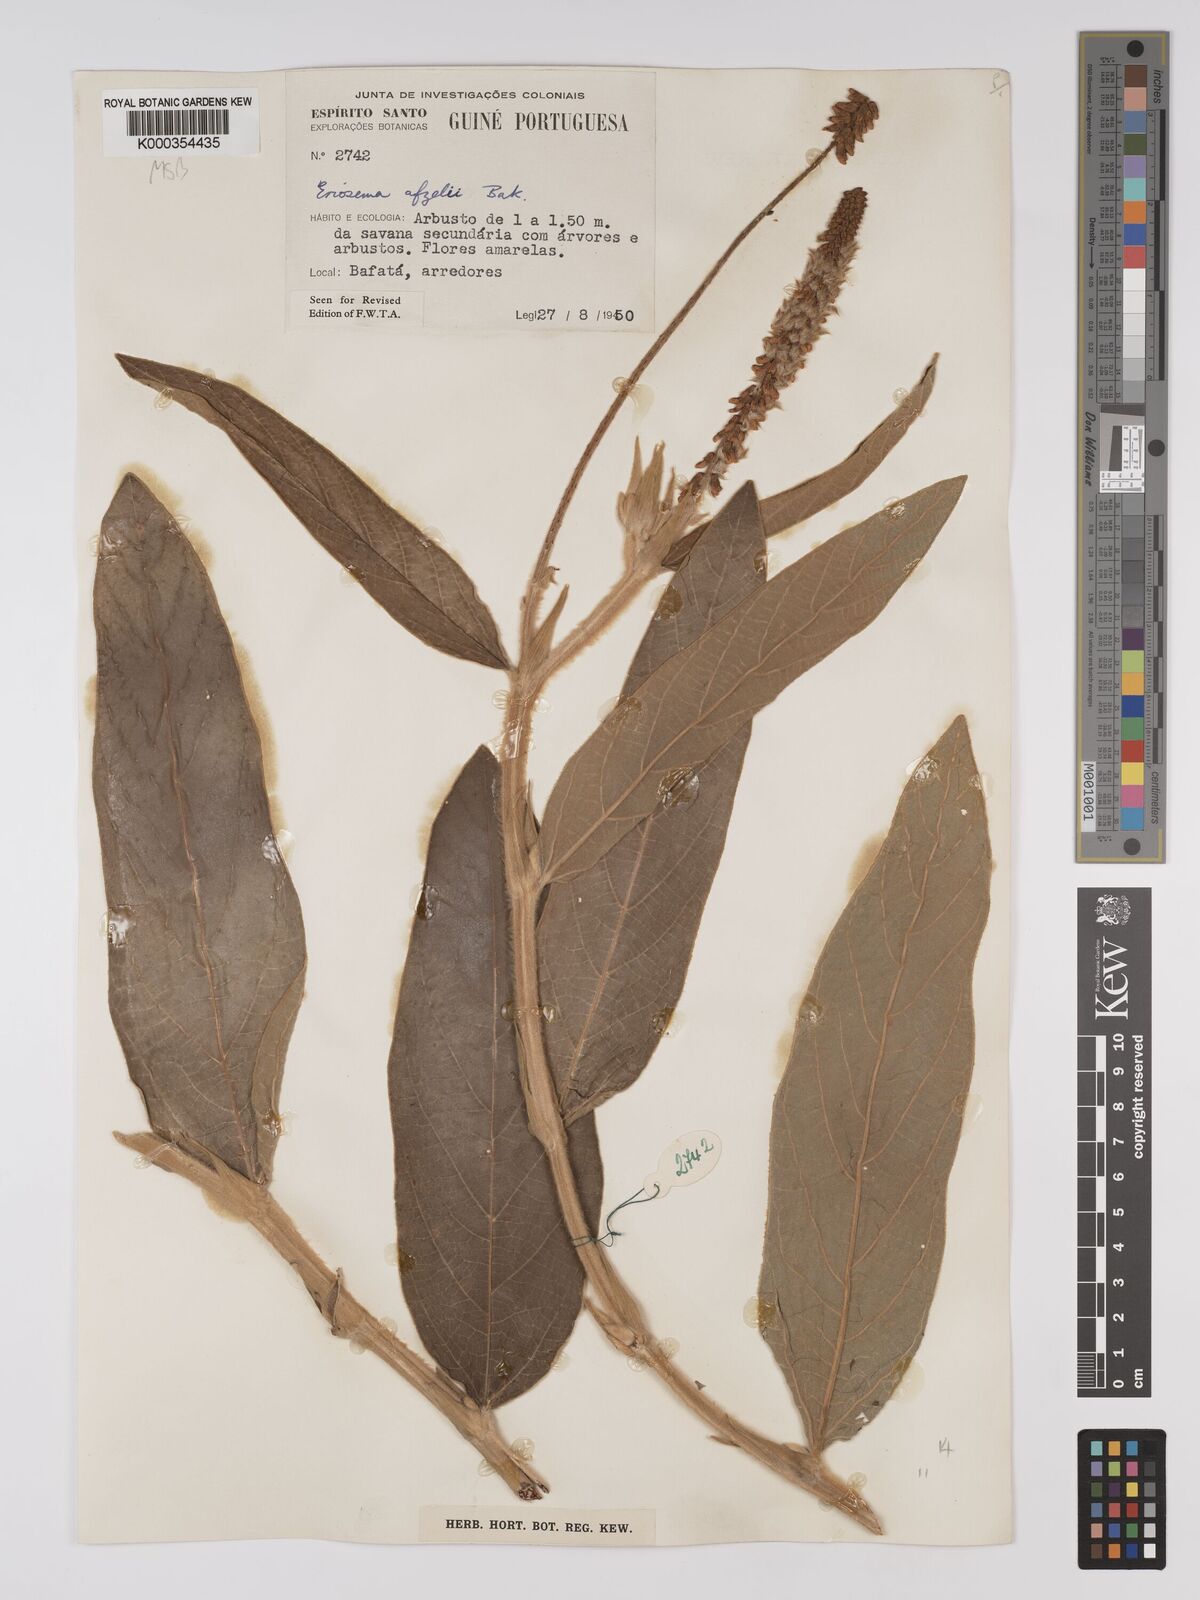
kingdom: Plantae
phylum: Tracheophyta
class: Magnoliopsida
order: Fabales
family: Fabaceae
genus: Eriosema
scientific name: Eriosema afzelii
